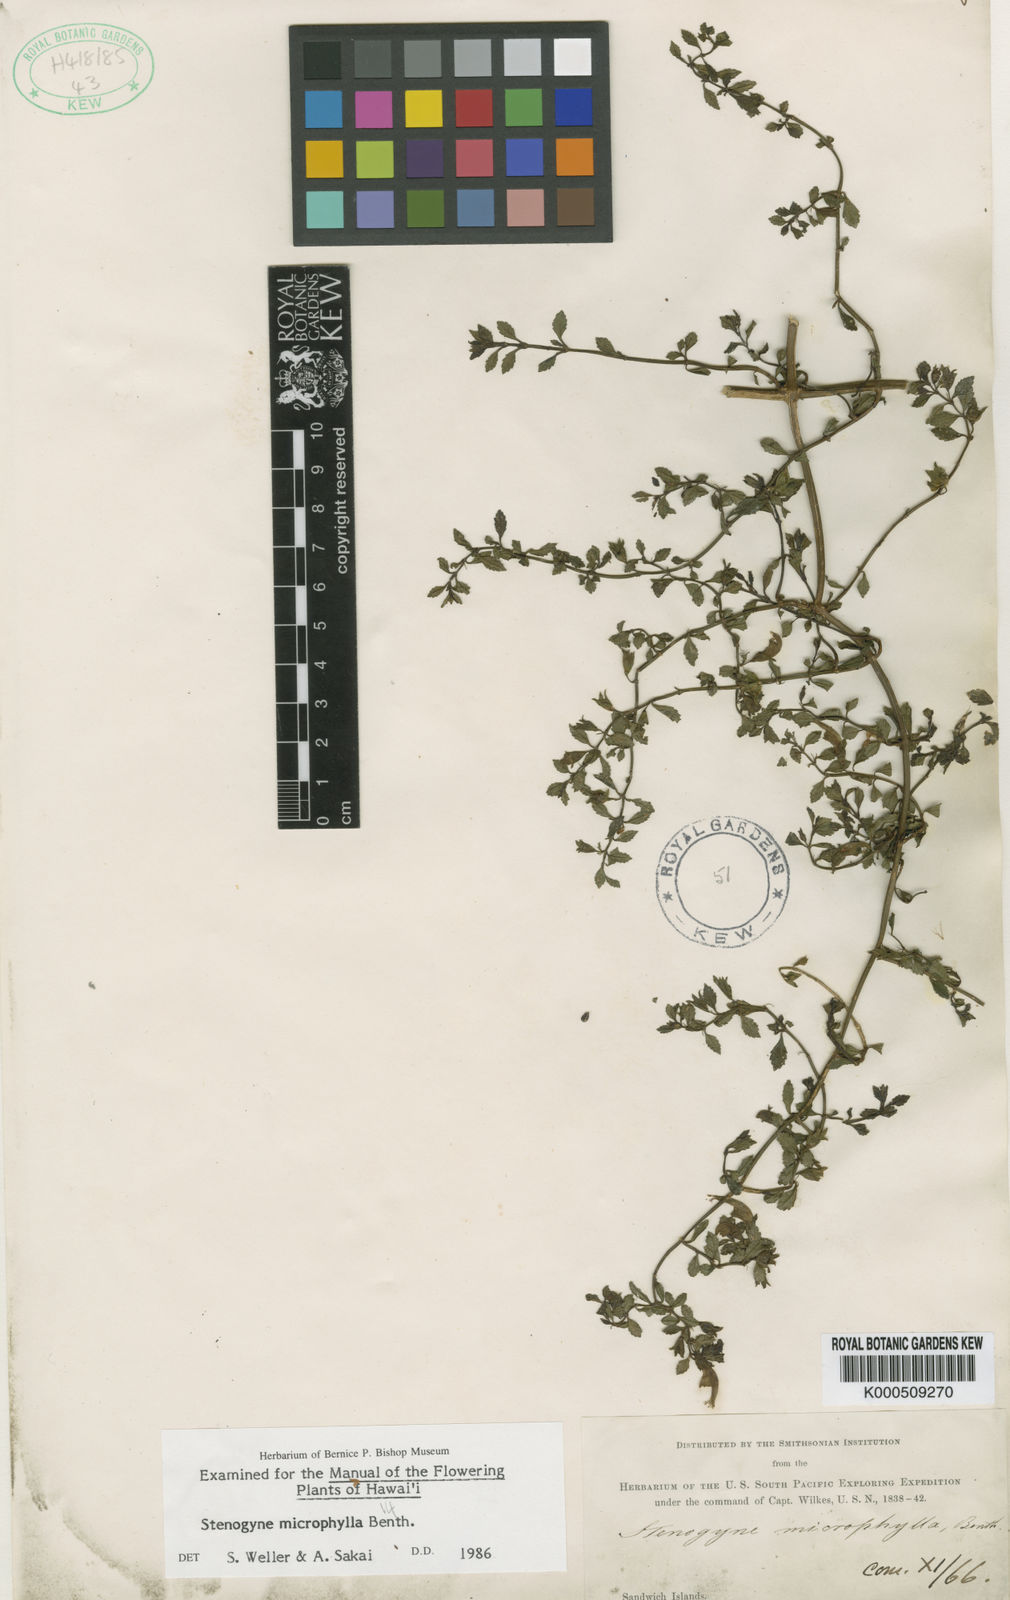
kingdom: Plantae
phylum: Tracheophyta
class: Magnoliopsida
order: Lamiales
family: Lamiaceae
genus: Stenogyne
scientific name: Stenogyne microphylla
